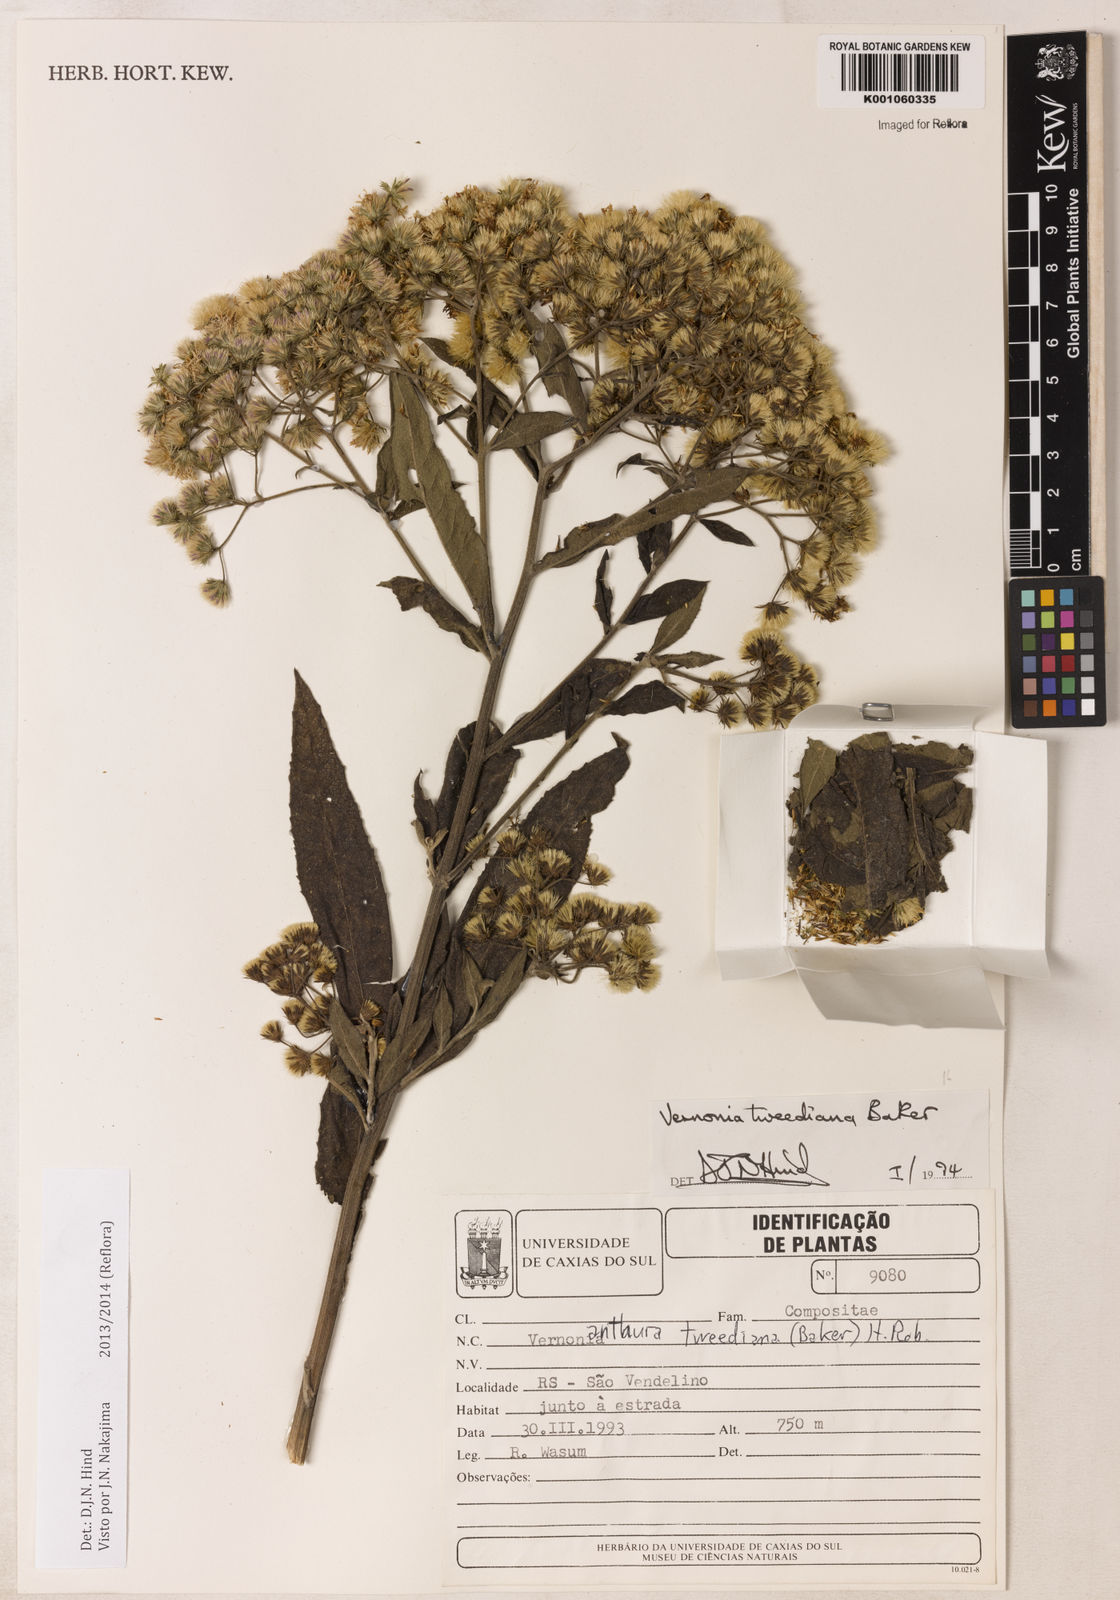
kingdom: Plantae
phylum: Tracheophyta
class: Magnoliopsida
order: Asterales
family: Asteraceae
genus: Vernonia
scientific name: Vernonia
